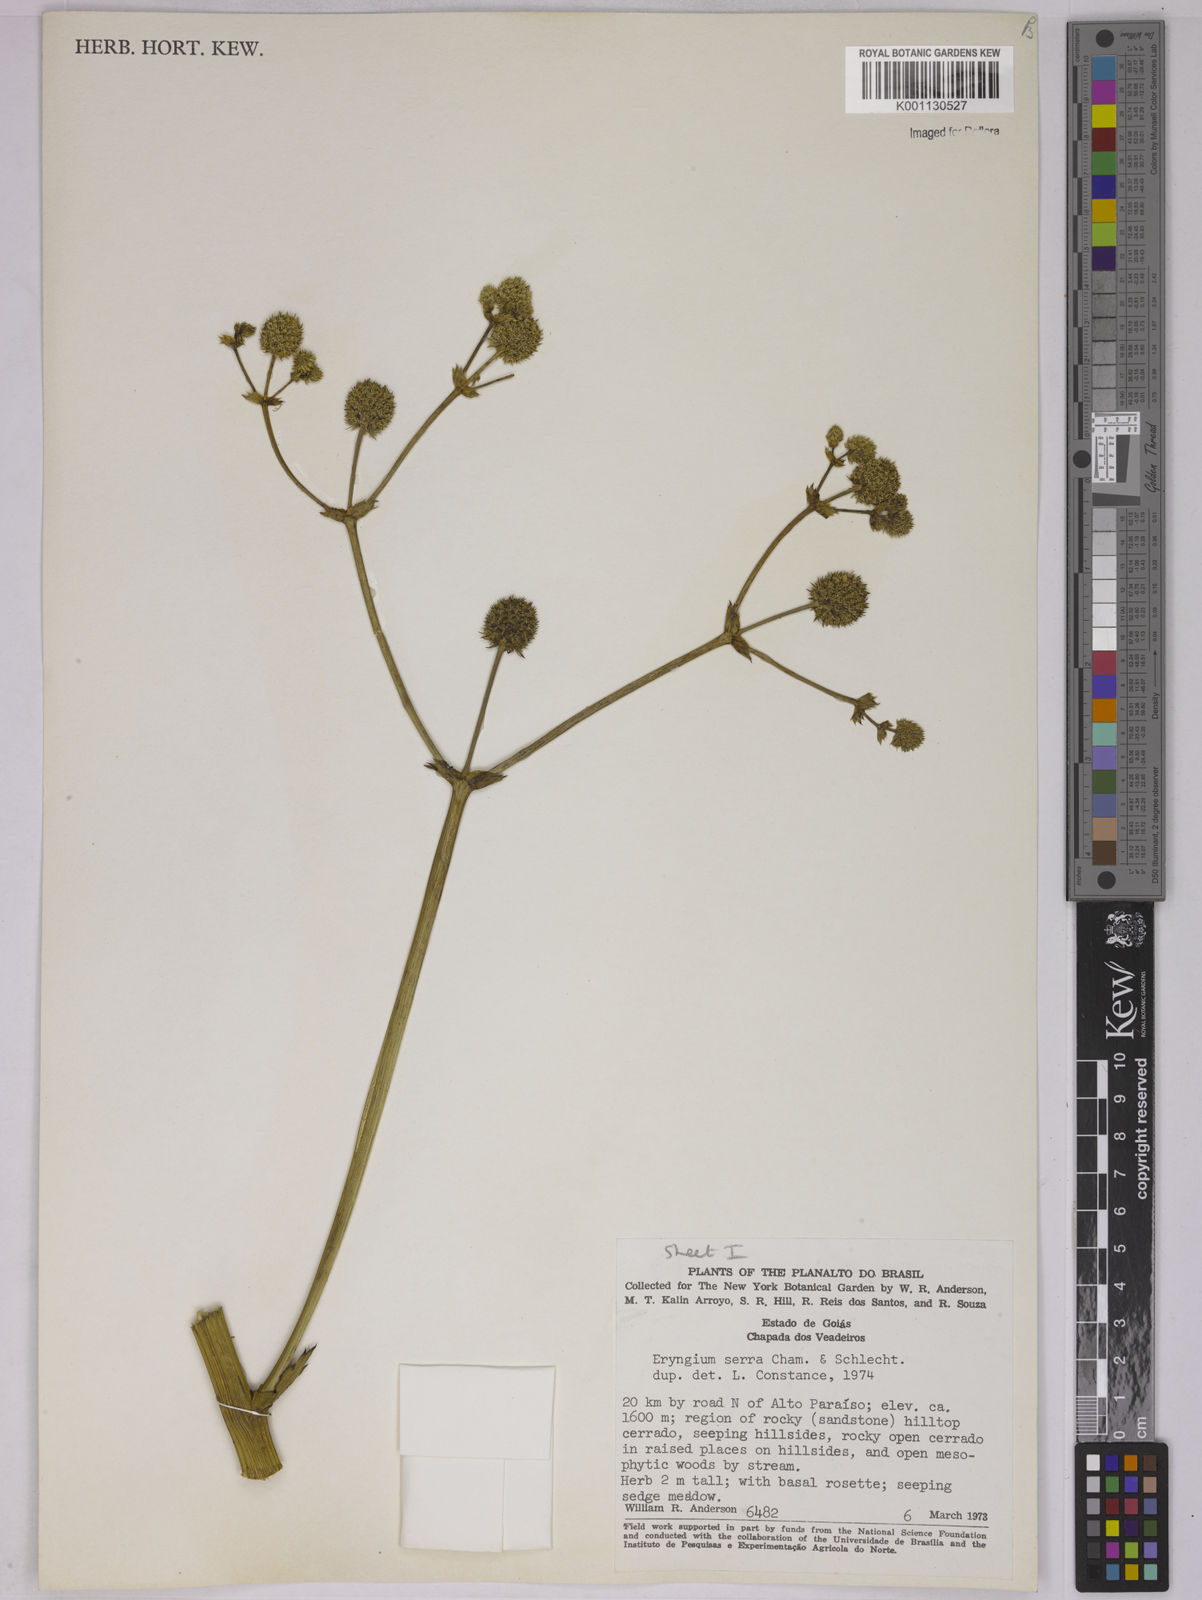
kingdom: Plantae
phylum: Tracheophyta
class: Magnoliopsida
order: Apiales
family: Apiaceae
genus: Eryngium
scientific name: Eryngium serra
